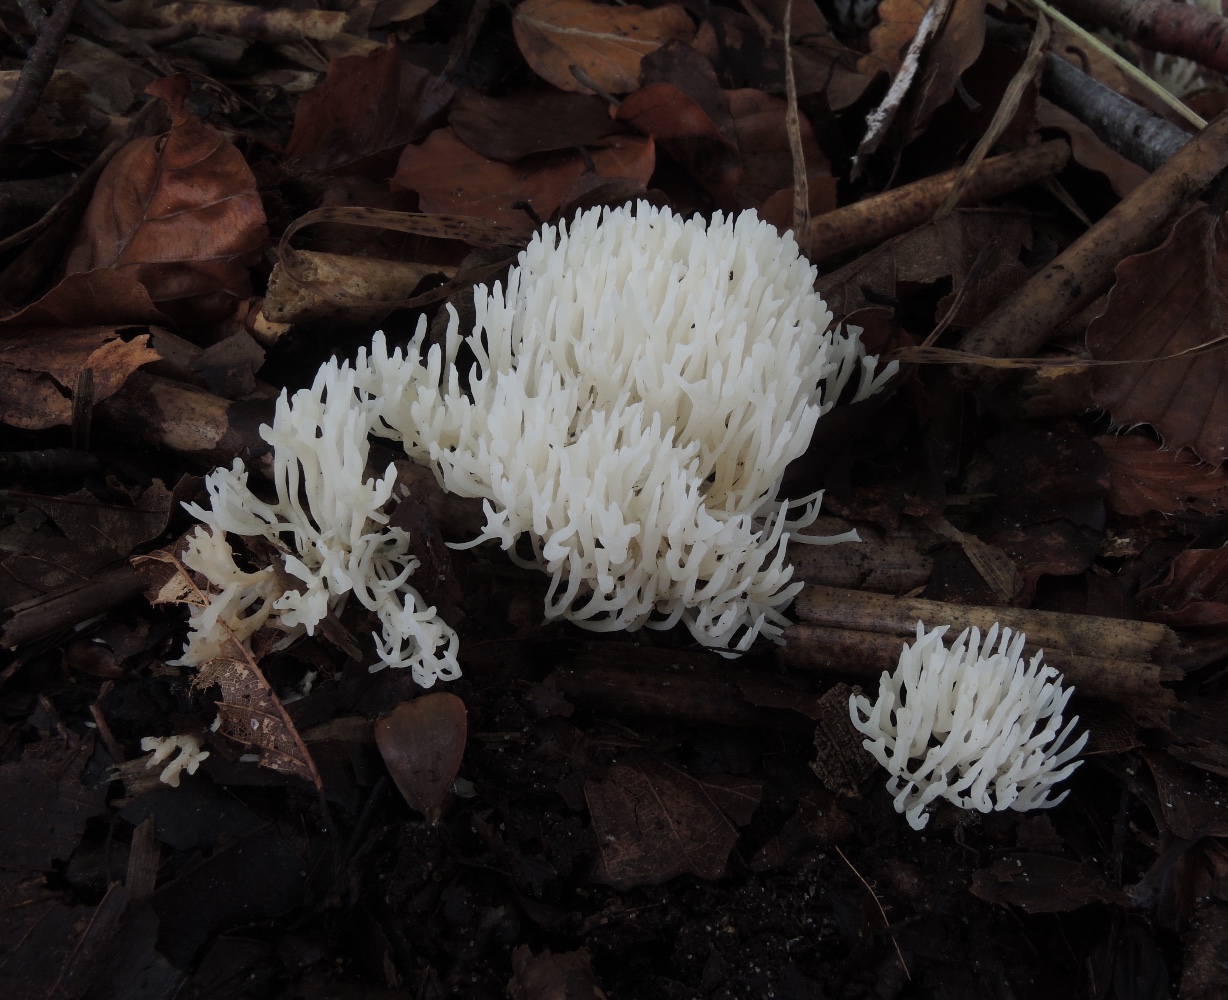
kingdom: Fungi
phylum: Basidiomycota
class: Agaricomycetes
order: Agaricales
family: Clavariaceae
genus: Ramariopsis
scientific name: Ramariopsis kunzei
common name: mangegrenet køllesvamp
